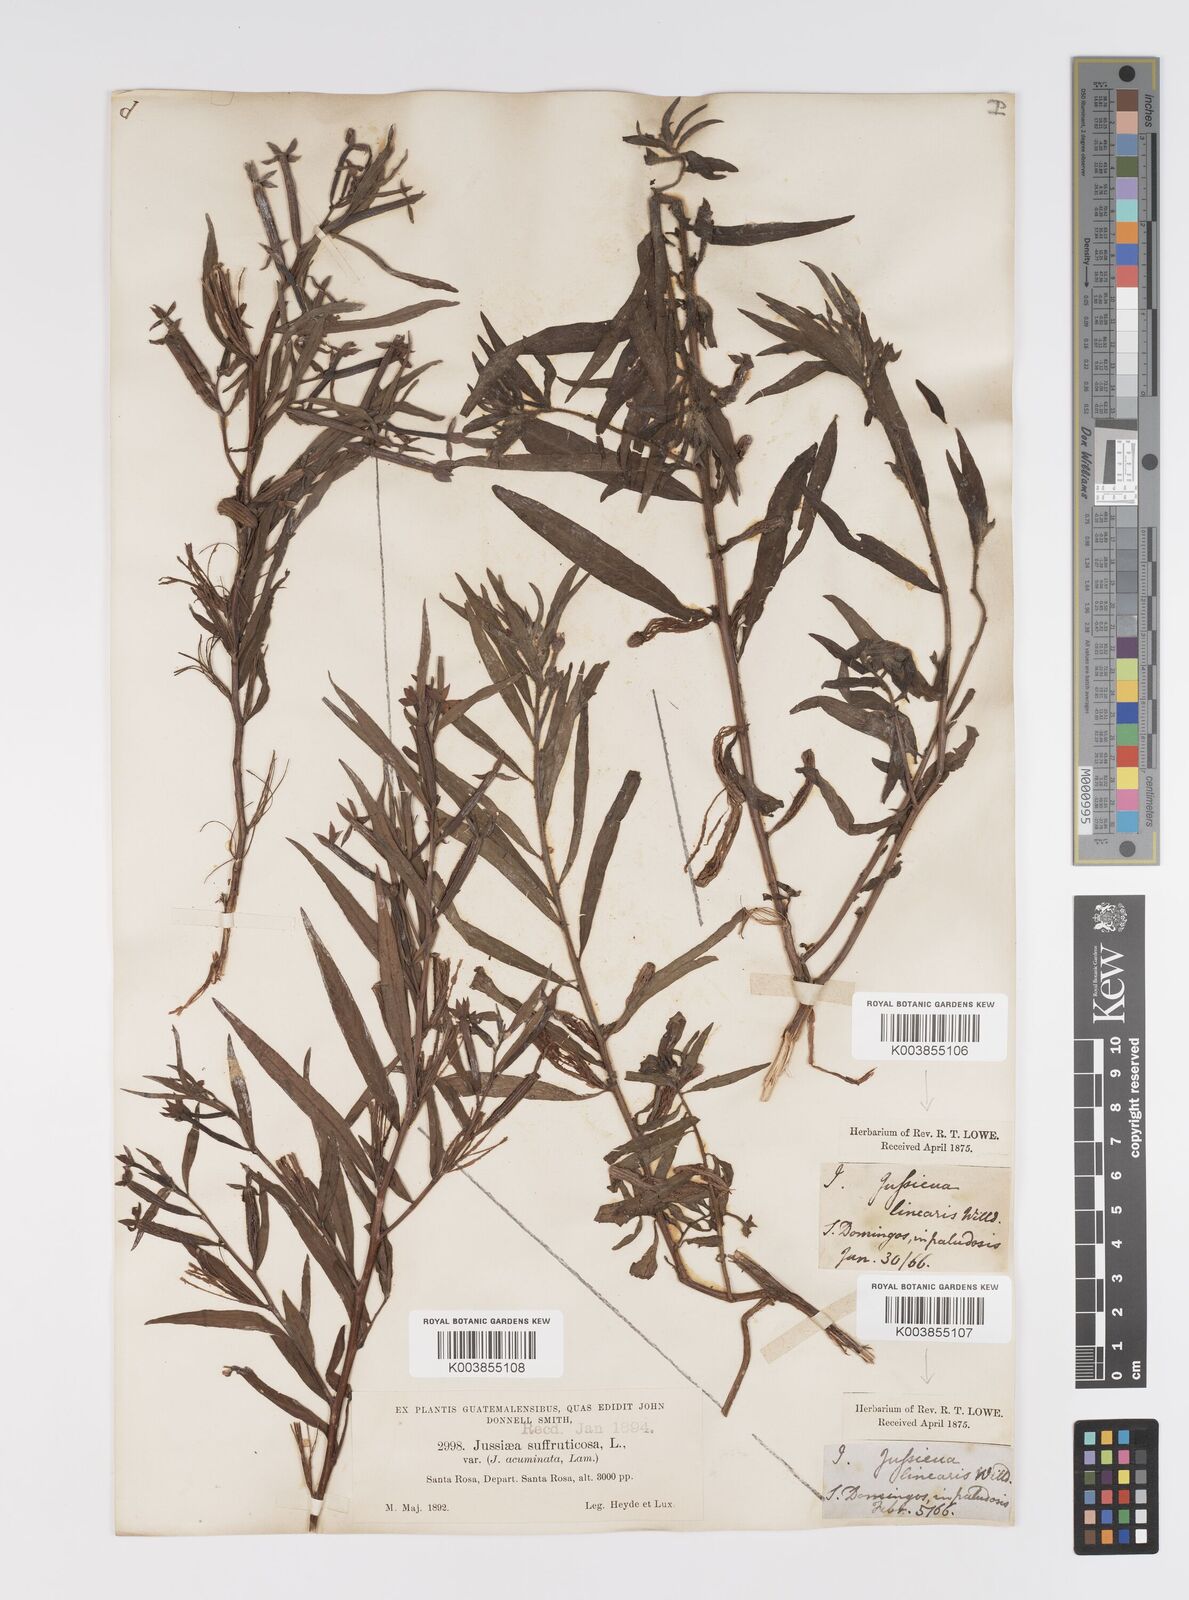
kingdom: Plantae
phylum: Tracheophyta
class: Magnoliopsida
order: Myrtales
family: Onagraceae
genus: Ludwigia
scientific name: Ludwigia octovalvis
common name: Water-primrose
